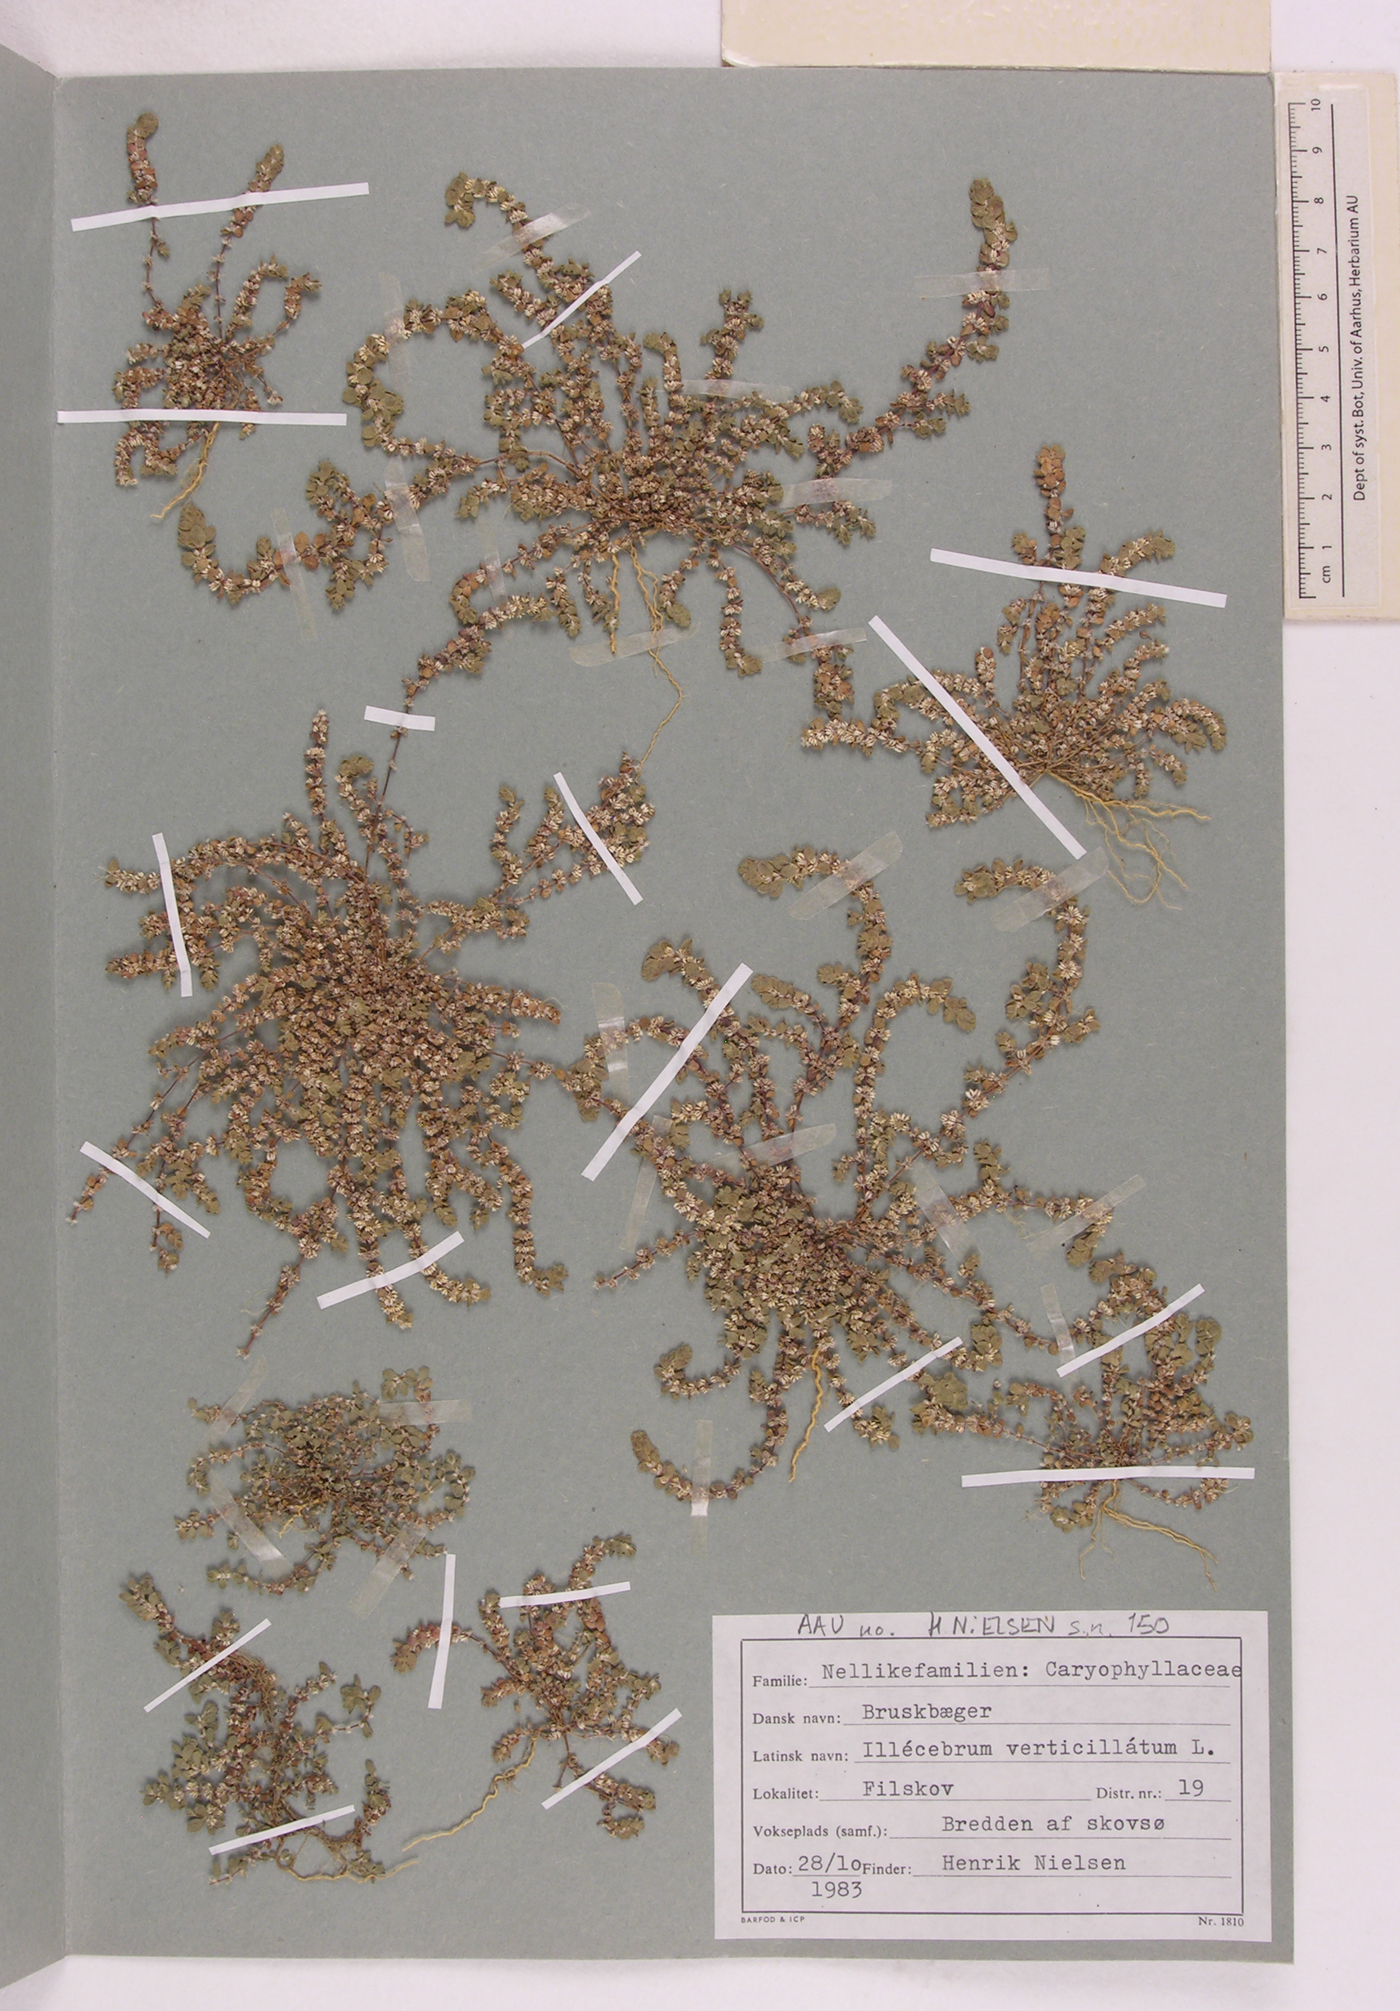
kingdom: Plantae
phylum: Tracheophyta
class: Magnoliopsida
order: Caryophyllales
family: Caryophyllaceae
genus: Illecebrum
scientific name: Illecebrum verticillatum
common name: Coral necklace
